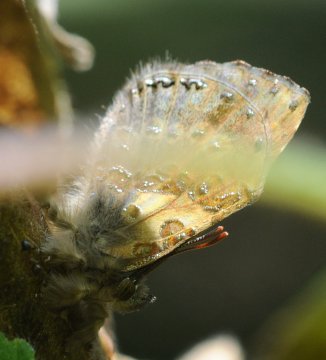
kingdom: Animalia
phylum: Arthropoda
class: Insecta
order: Lepidoptera
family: Lycaenidae
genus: Lachnocnema
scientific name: Lachnocnema bibulus
